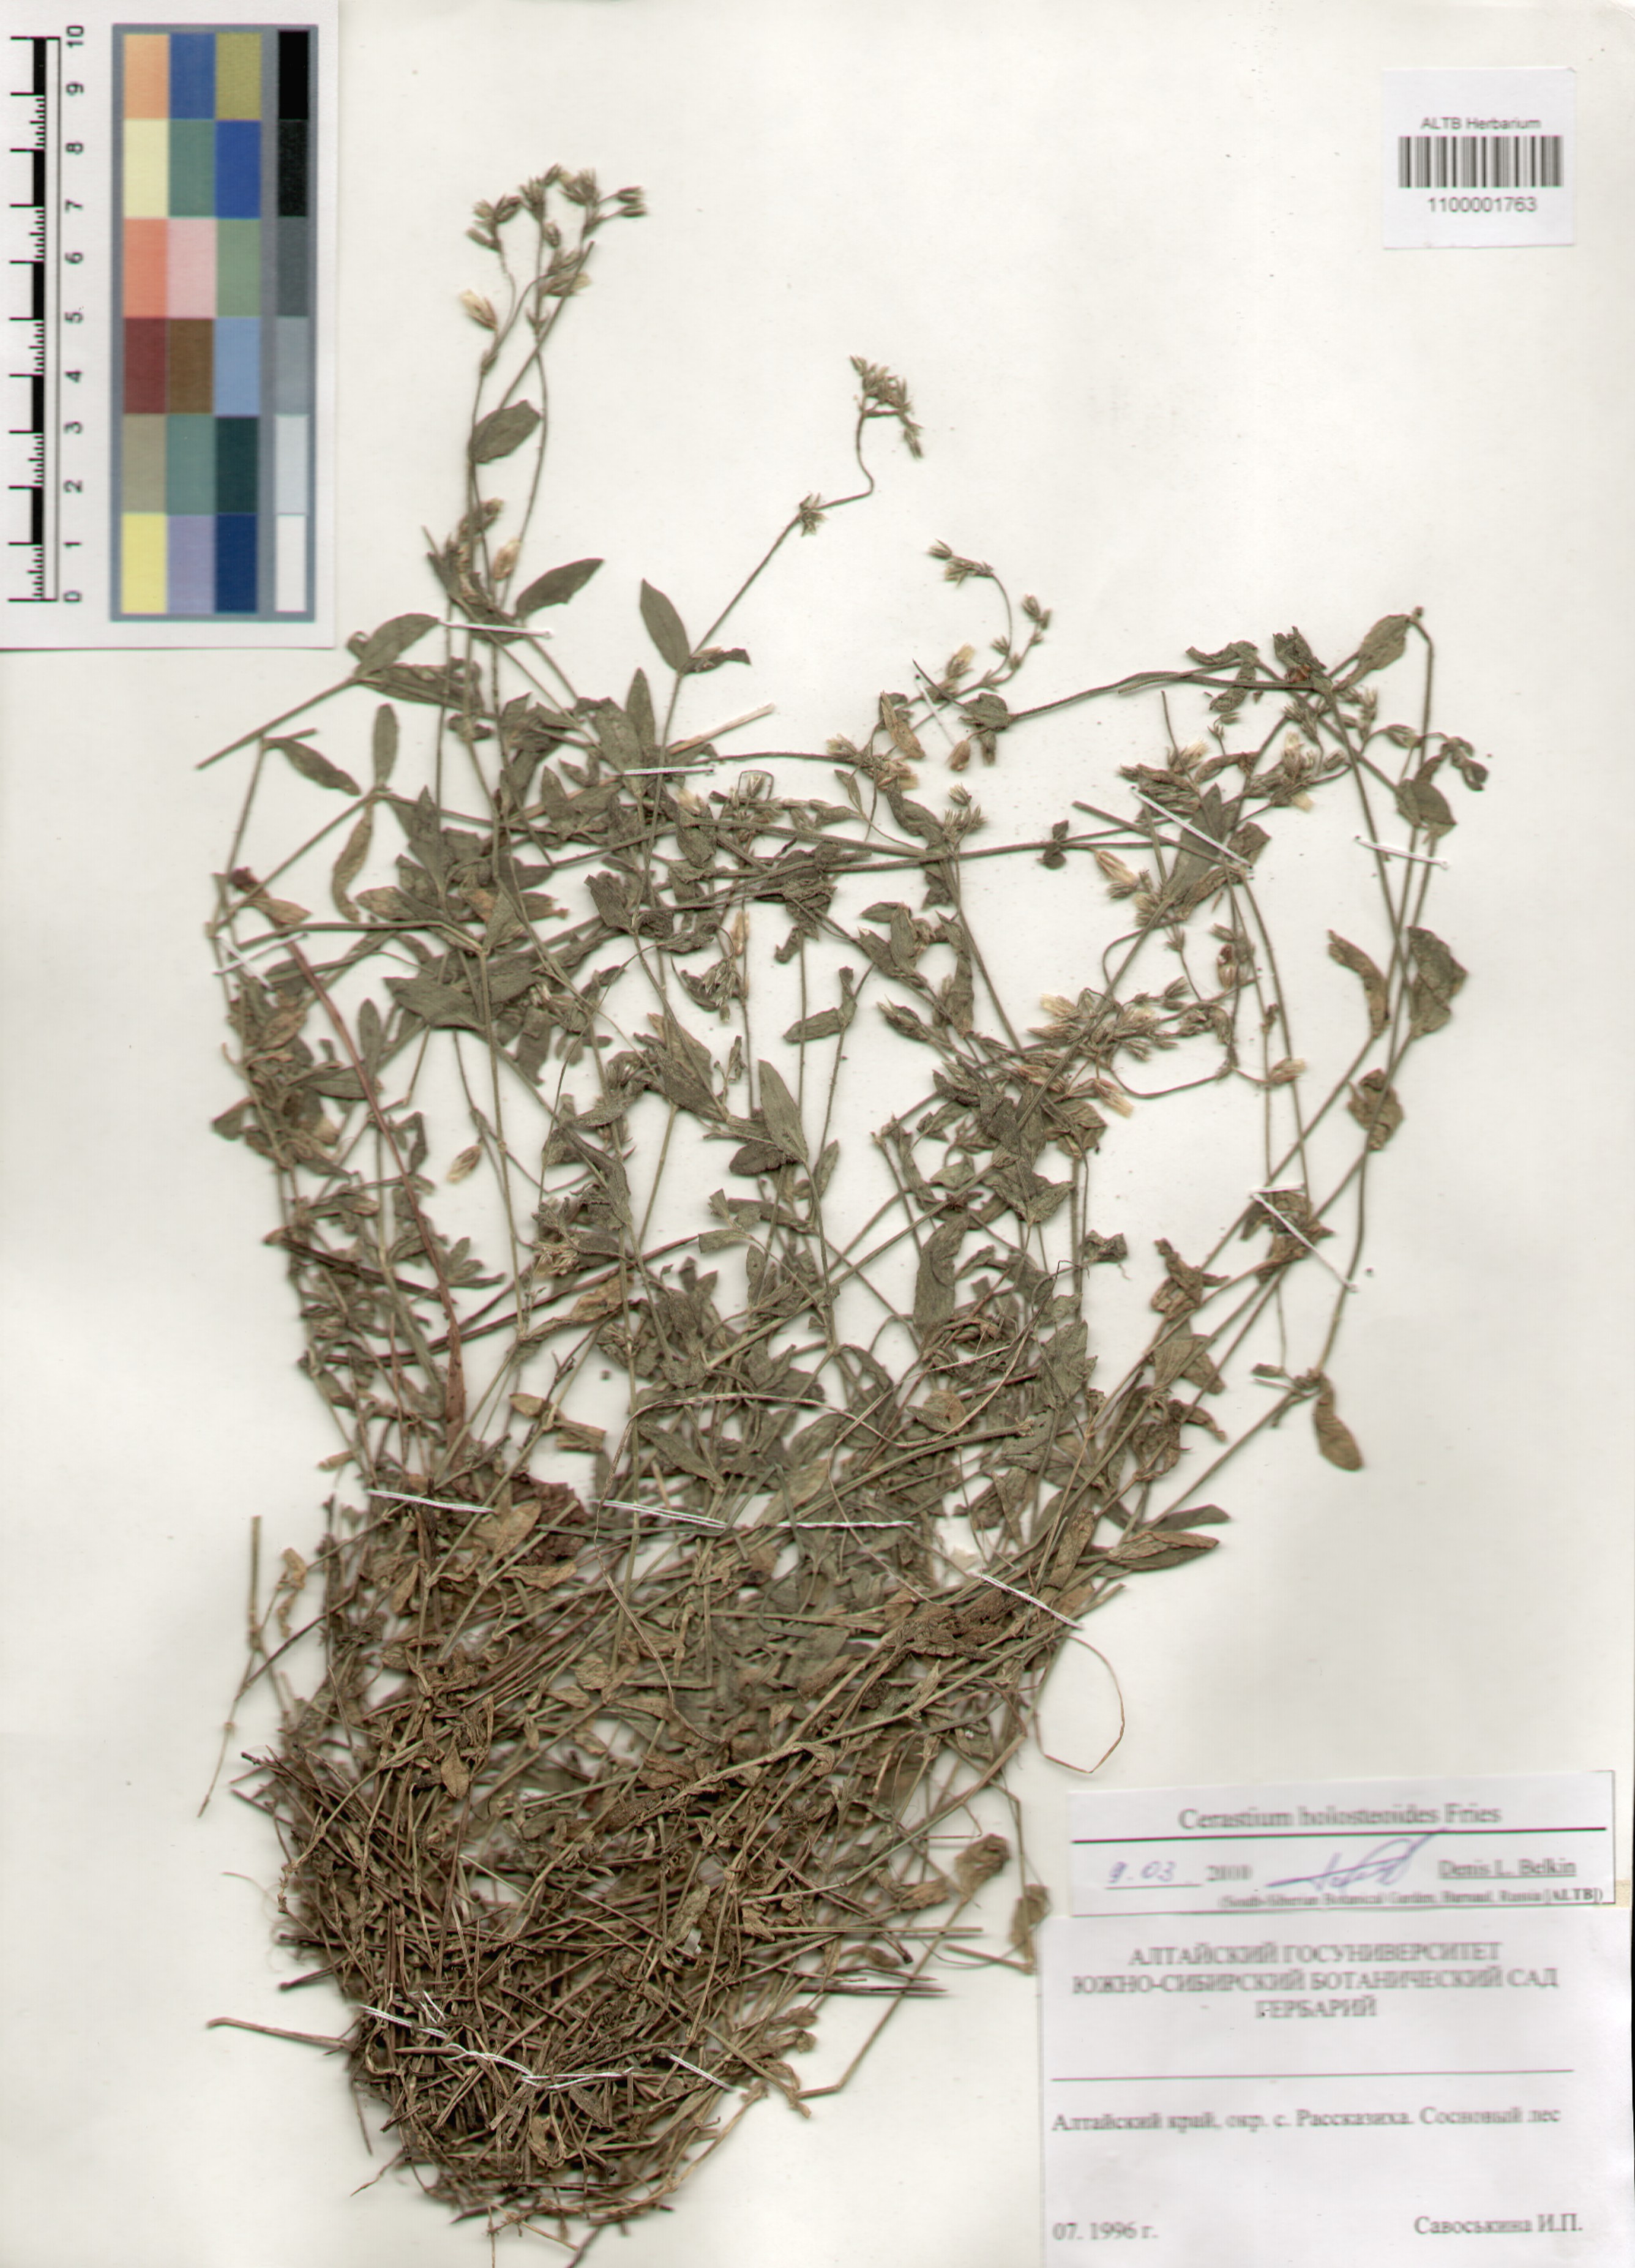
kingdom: Plantae
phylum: Tracheophyta
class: Magnoliopsida
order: Caryophyllales
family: Caryophyllaceae
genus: Cerastium
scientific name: Cerastium holosteoides
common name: Big chickweed
